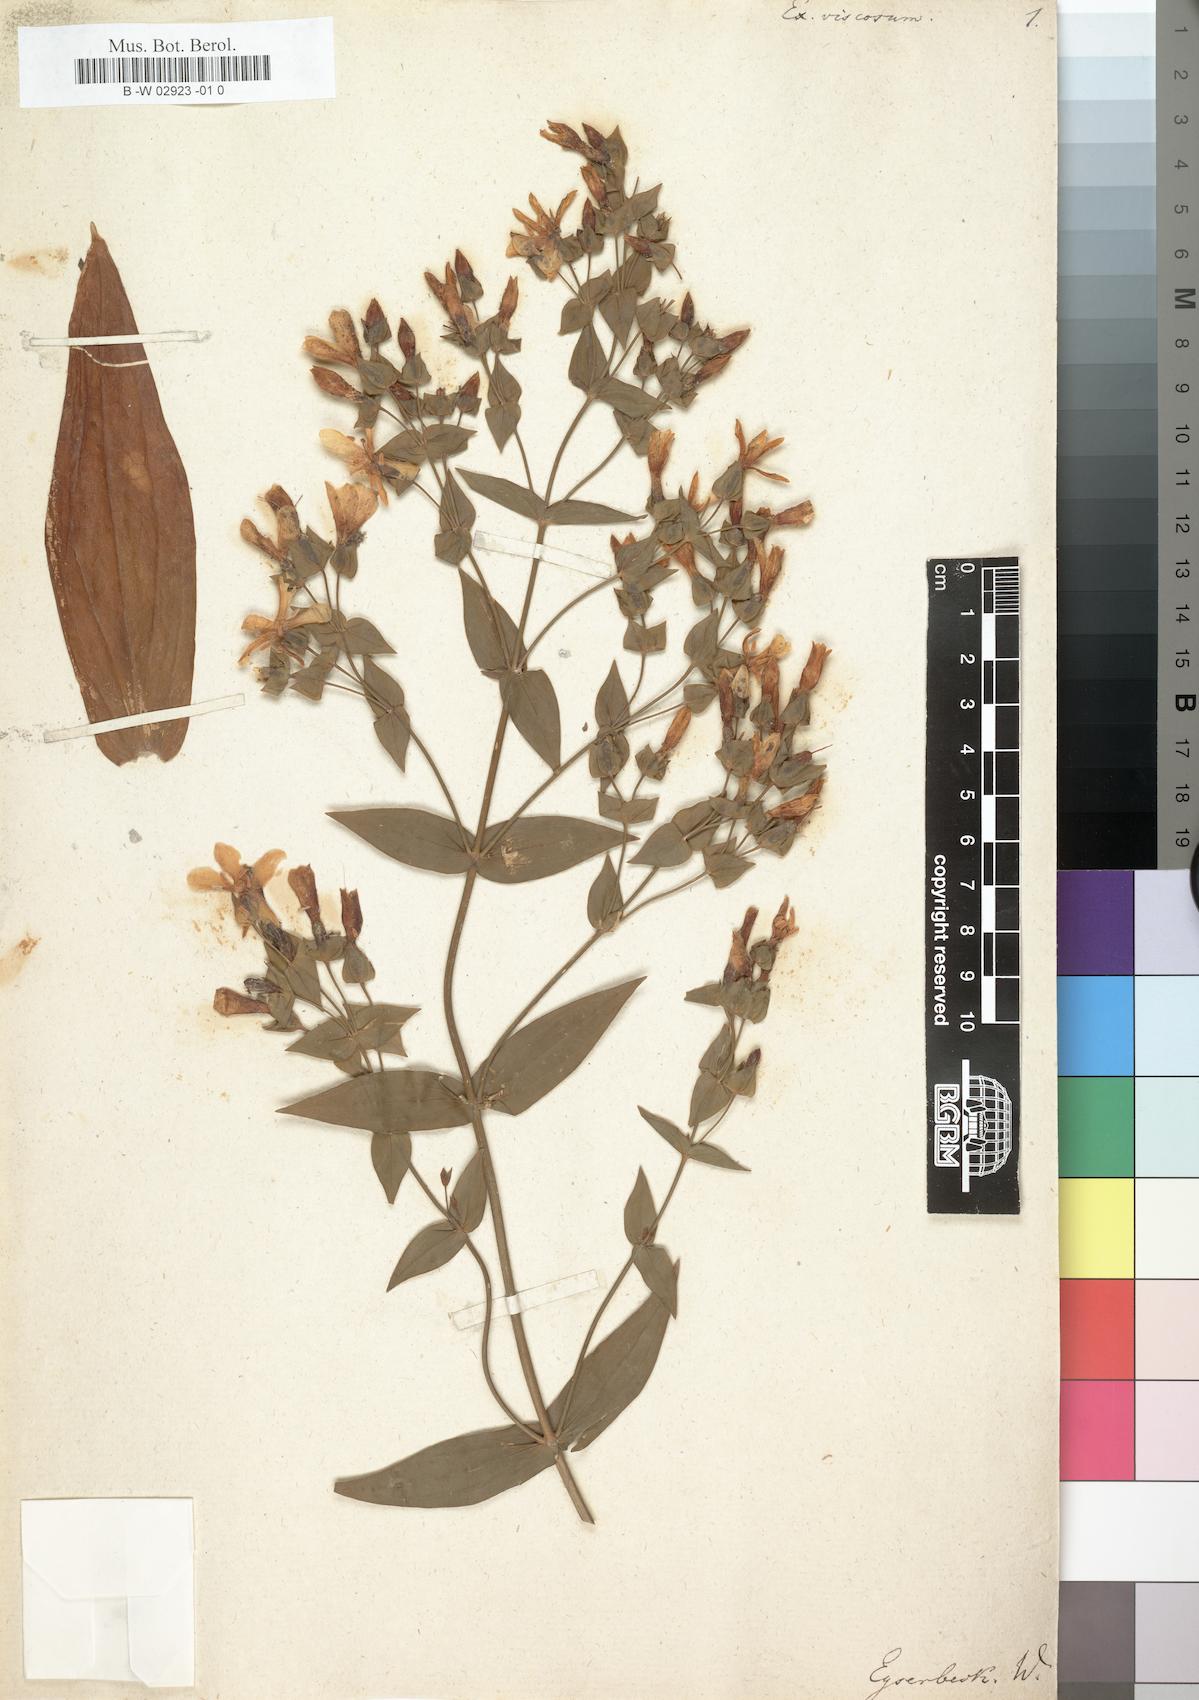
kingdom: Plantae
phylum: Tracheophyta
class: Magnoliopsida
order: Gentianales
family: Gentianaceae
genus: Ixanthus
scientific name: Ixanthus viscosus
